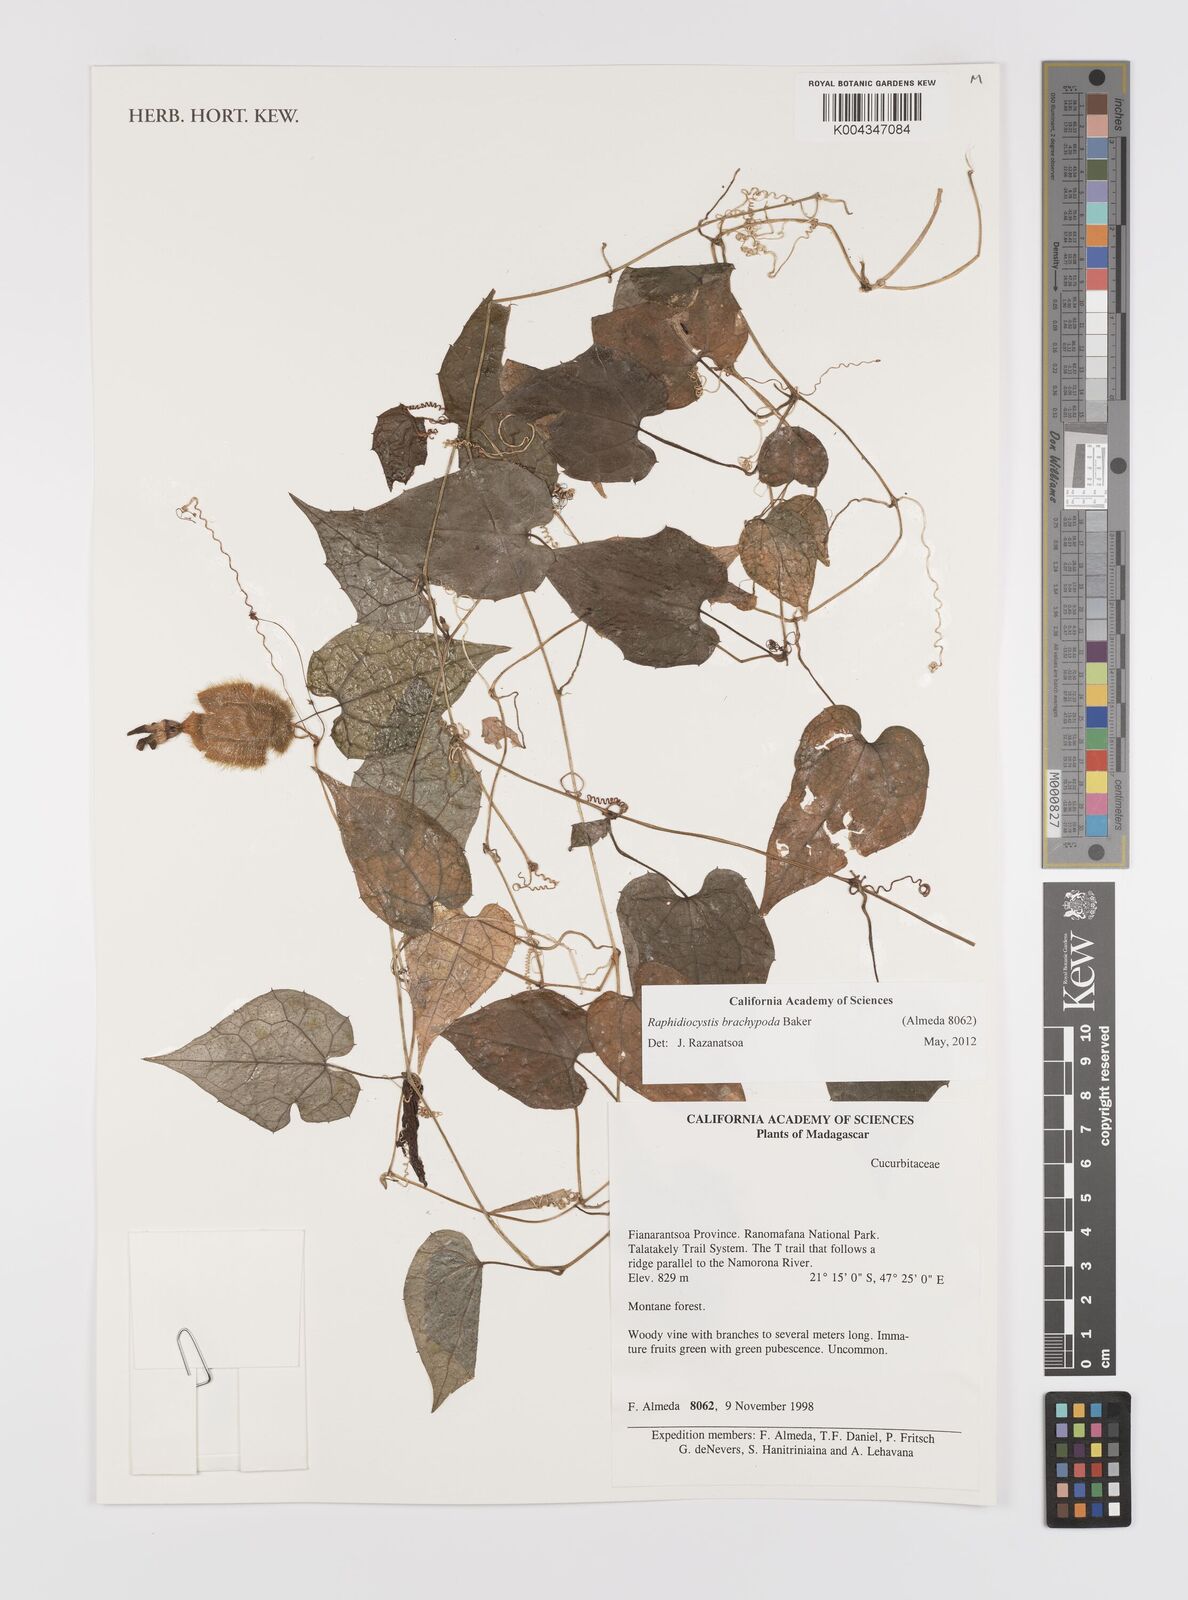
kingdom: Plantae
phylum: Tracheophyta
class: Magnoliopsida
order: Cucurbitales
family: Cucurbitaceae
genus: Raphidiocystis
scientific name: Raphidiocystis brachypoda
